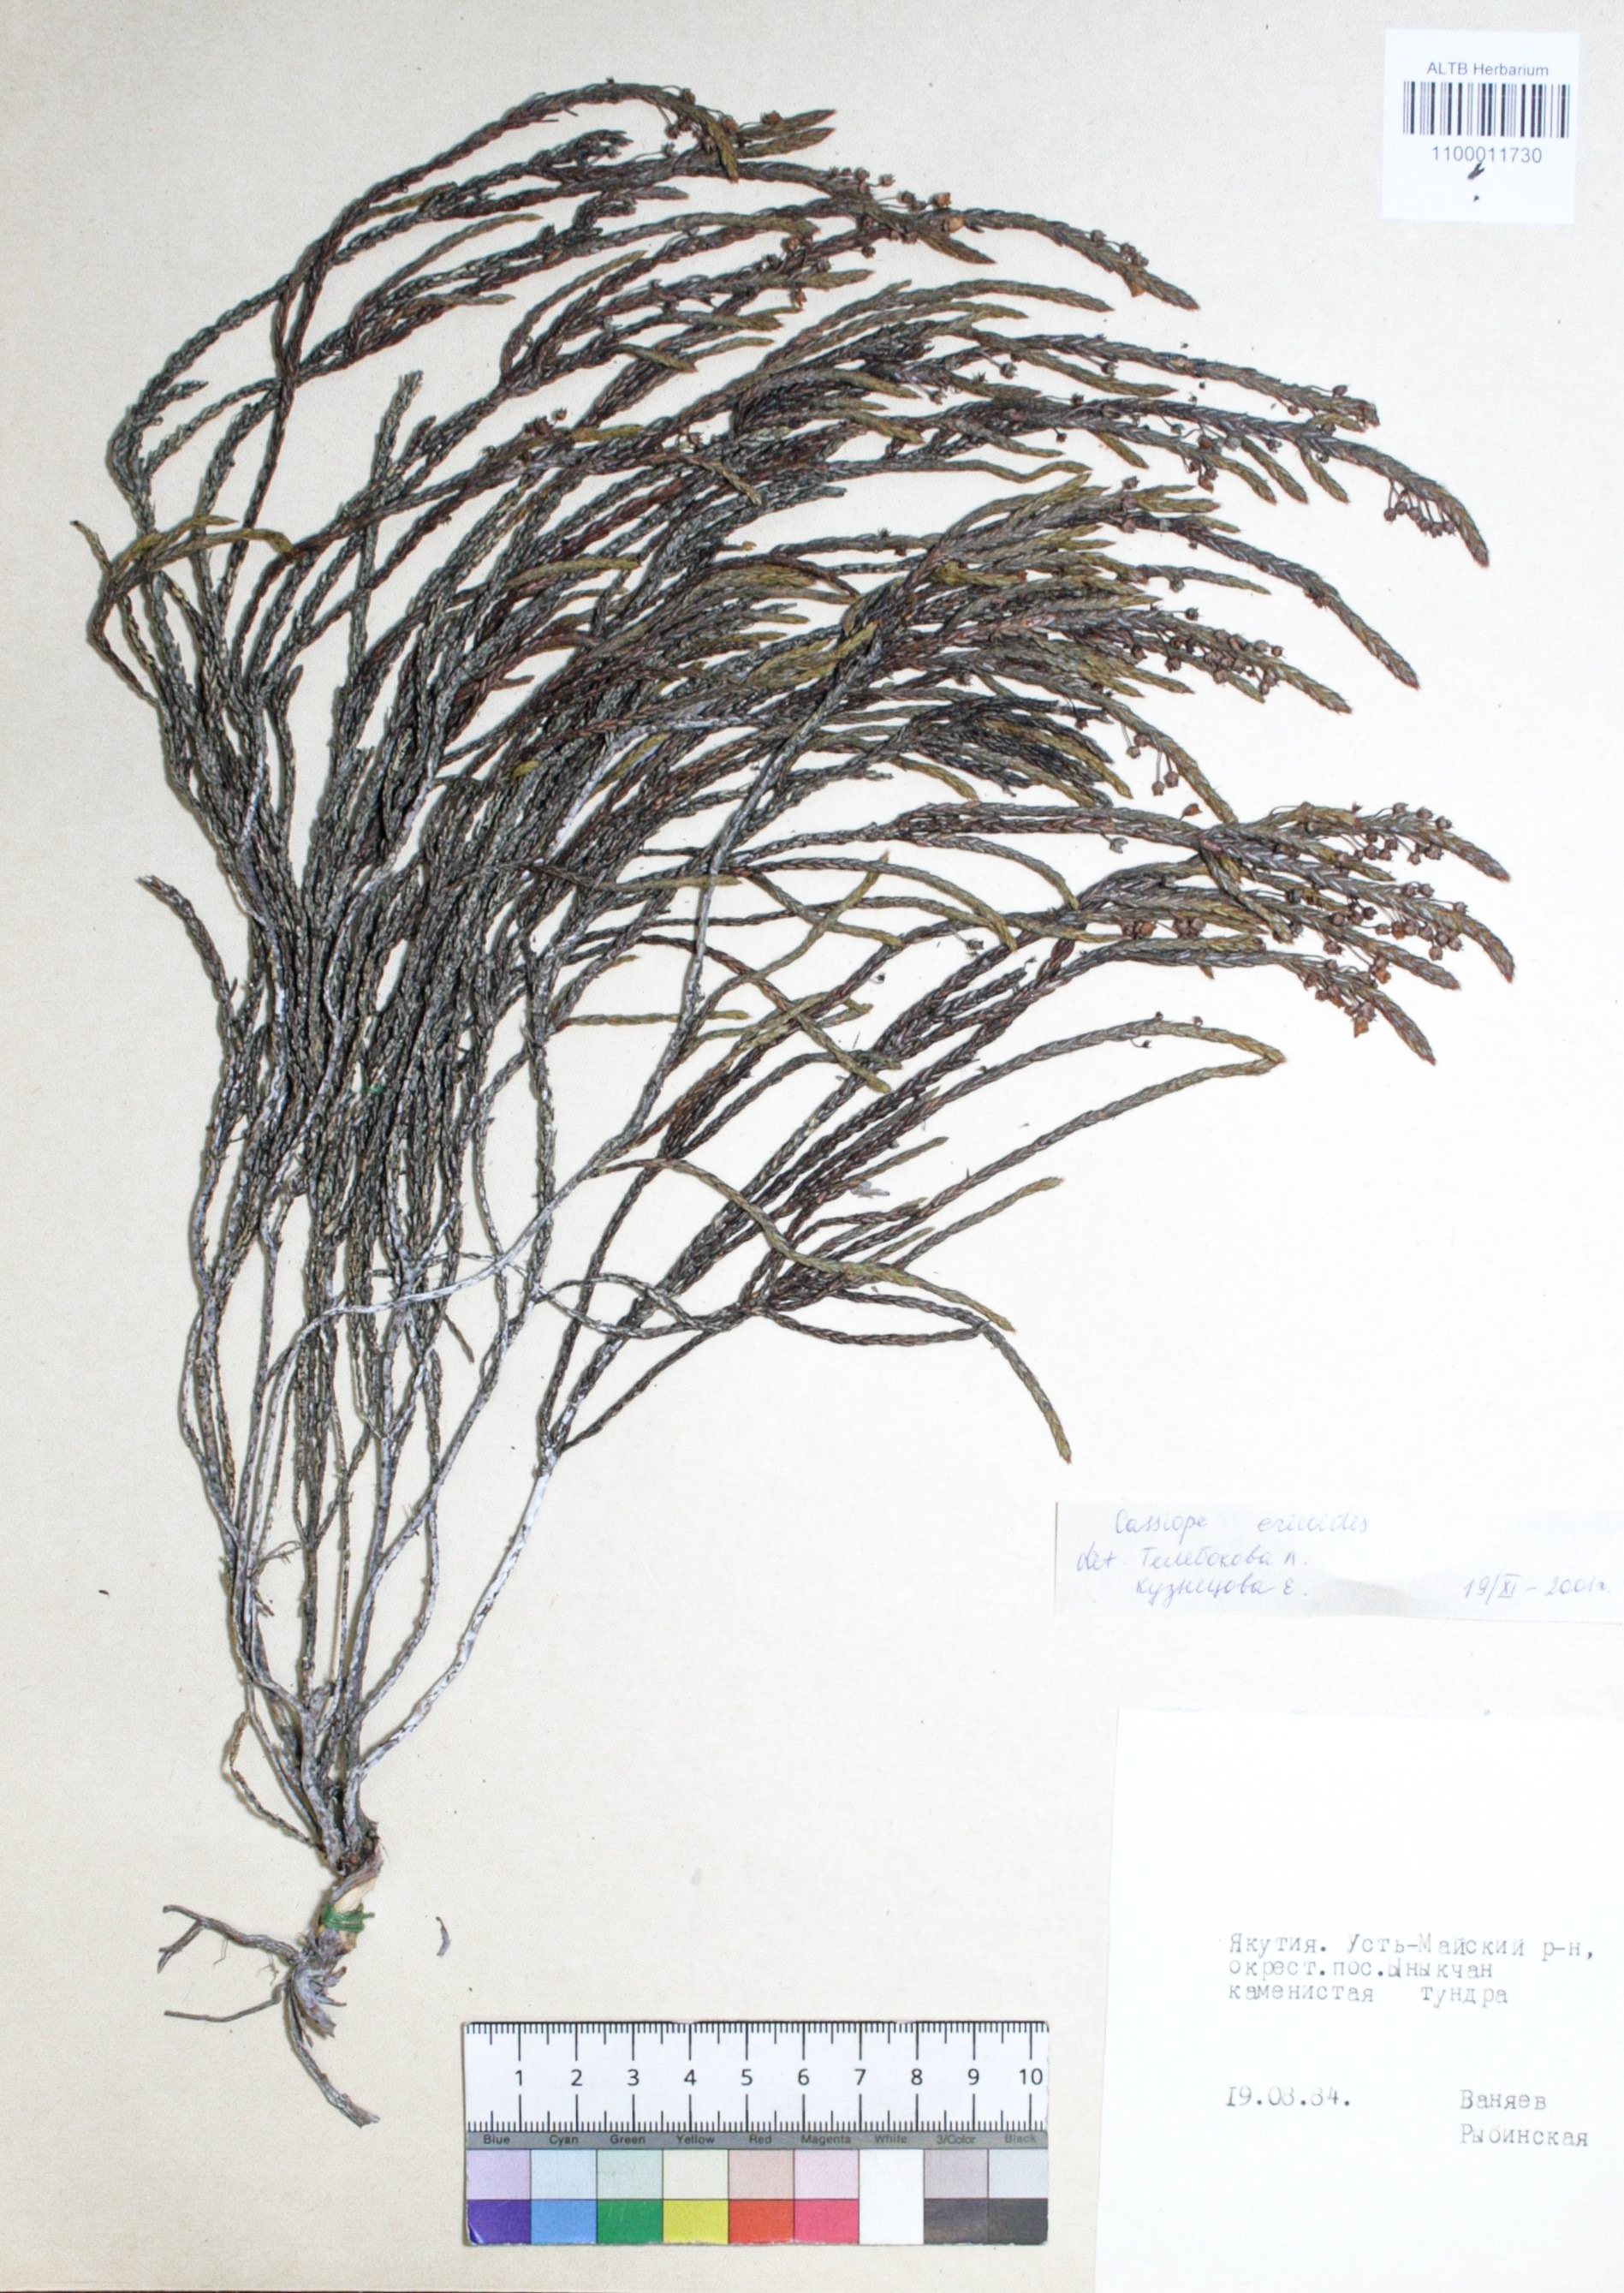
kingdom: Plantae
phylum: Tracheophyta
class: Magnoliopsida
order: Ericales
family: Ericaceae
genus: Cassiope
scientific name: Cassiope ericoides
